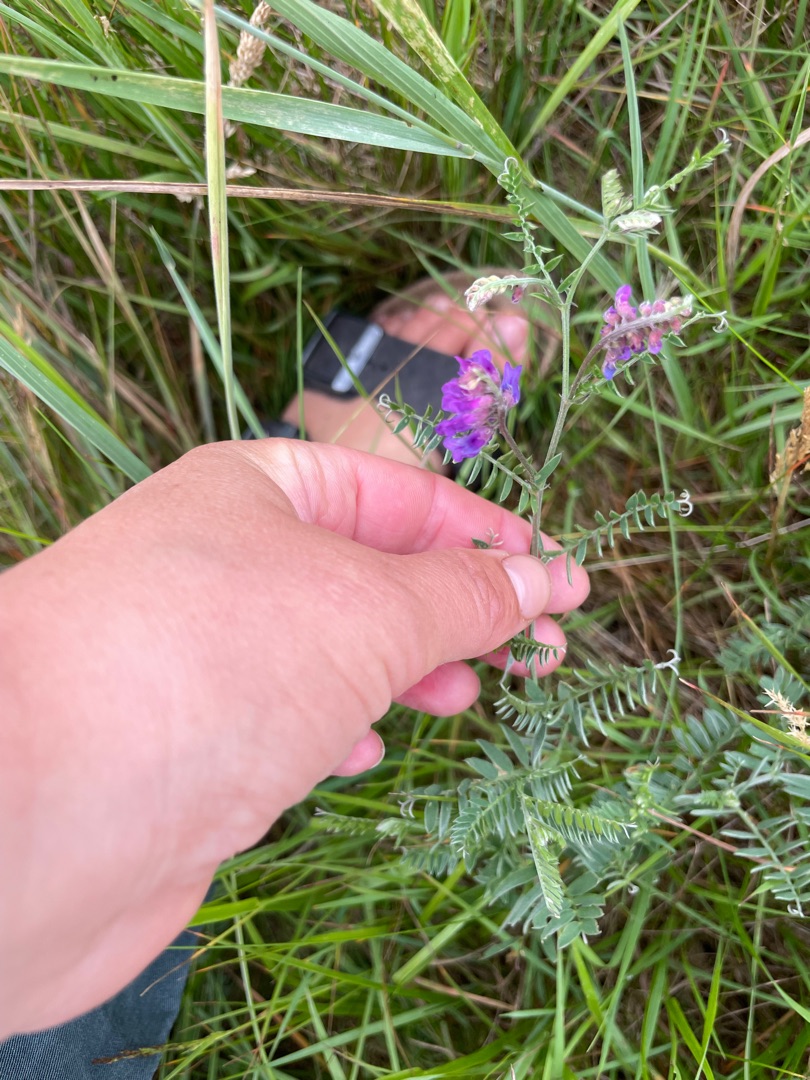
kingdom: Plantae
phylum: Tracheophyta
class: Magnoliopsida
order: Fabales
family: Fabaceae
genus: Vicia
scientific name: Vicia cracca
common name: Muse-vikke
